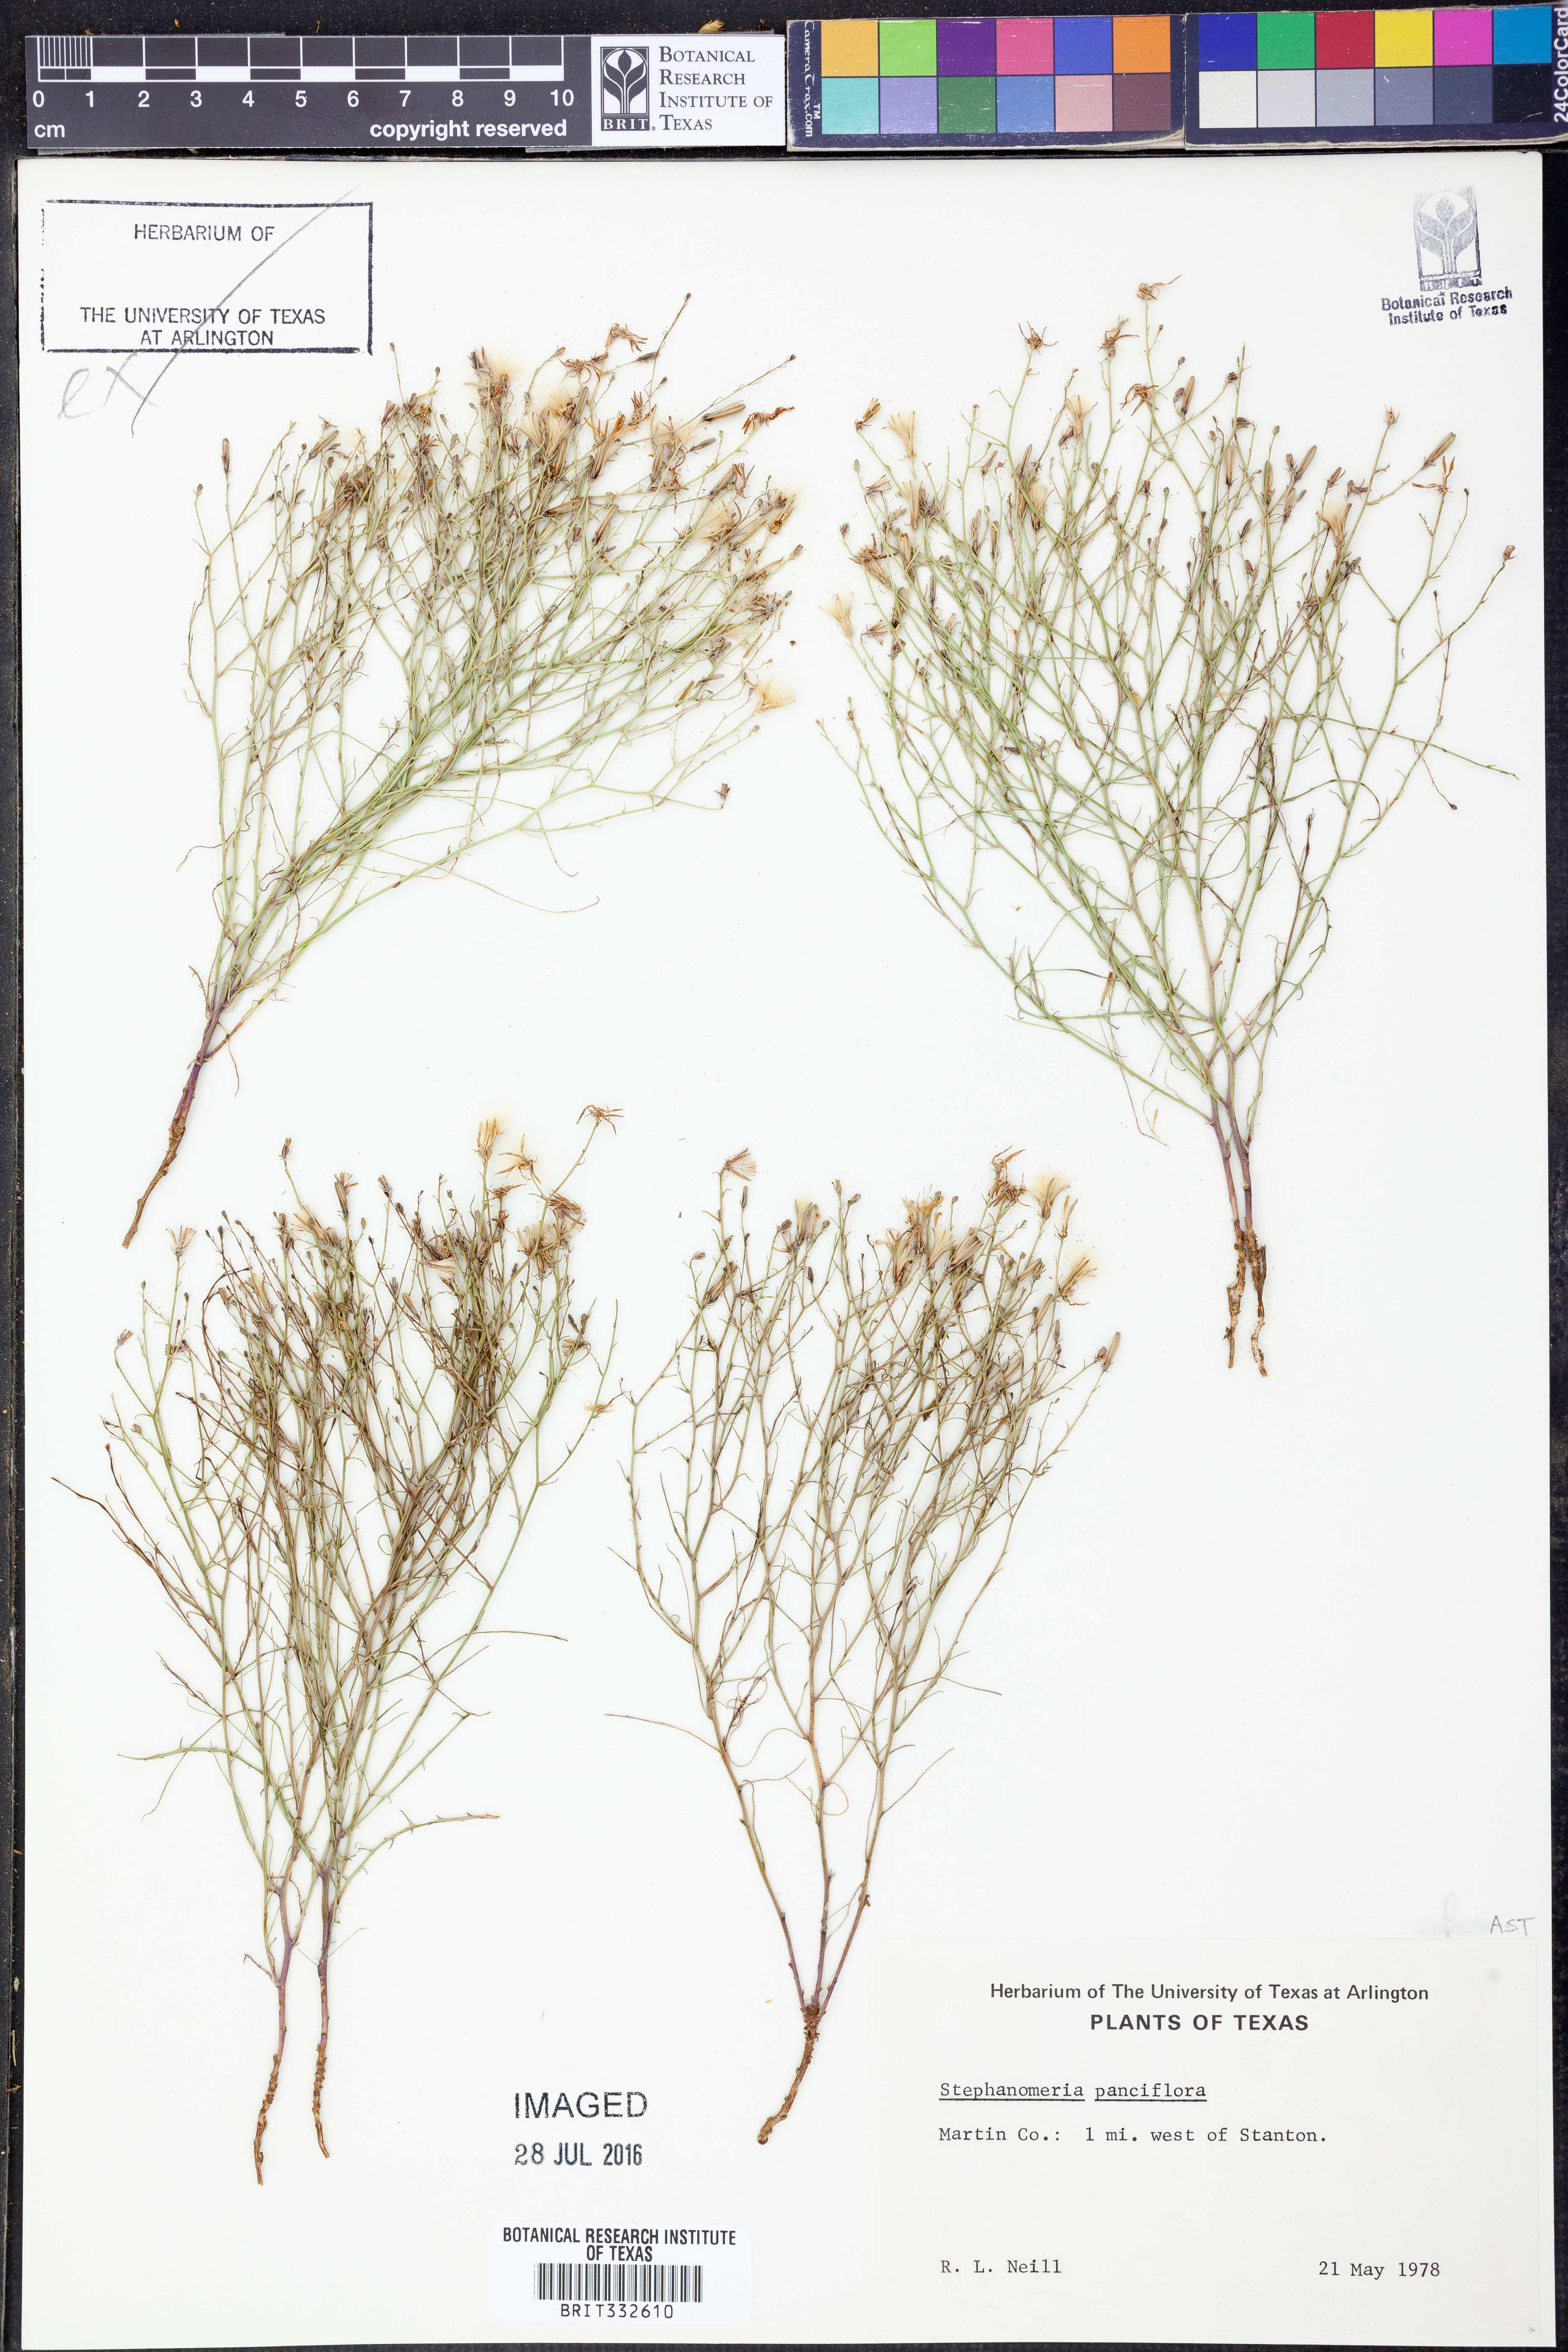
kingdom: Plantae
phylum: Tracheophyta
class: Magnoliopsida
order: Asterales
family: Asteraceae
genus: Stephanomeria
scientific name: Stephanomeria pauciflora
